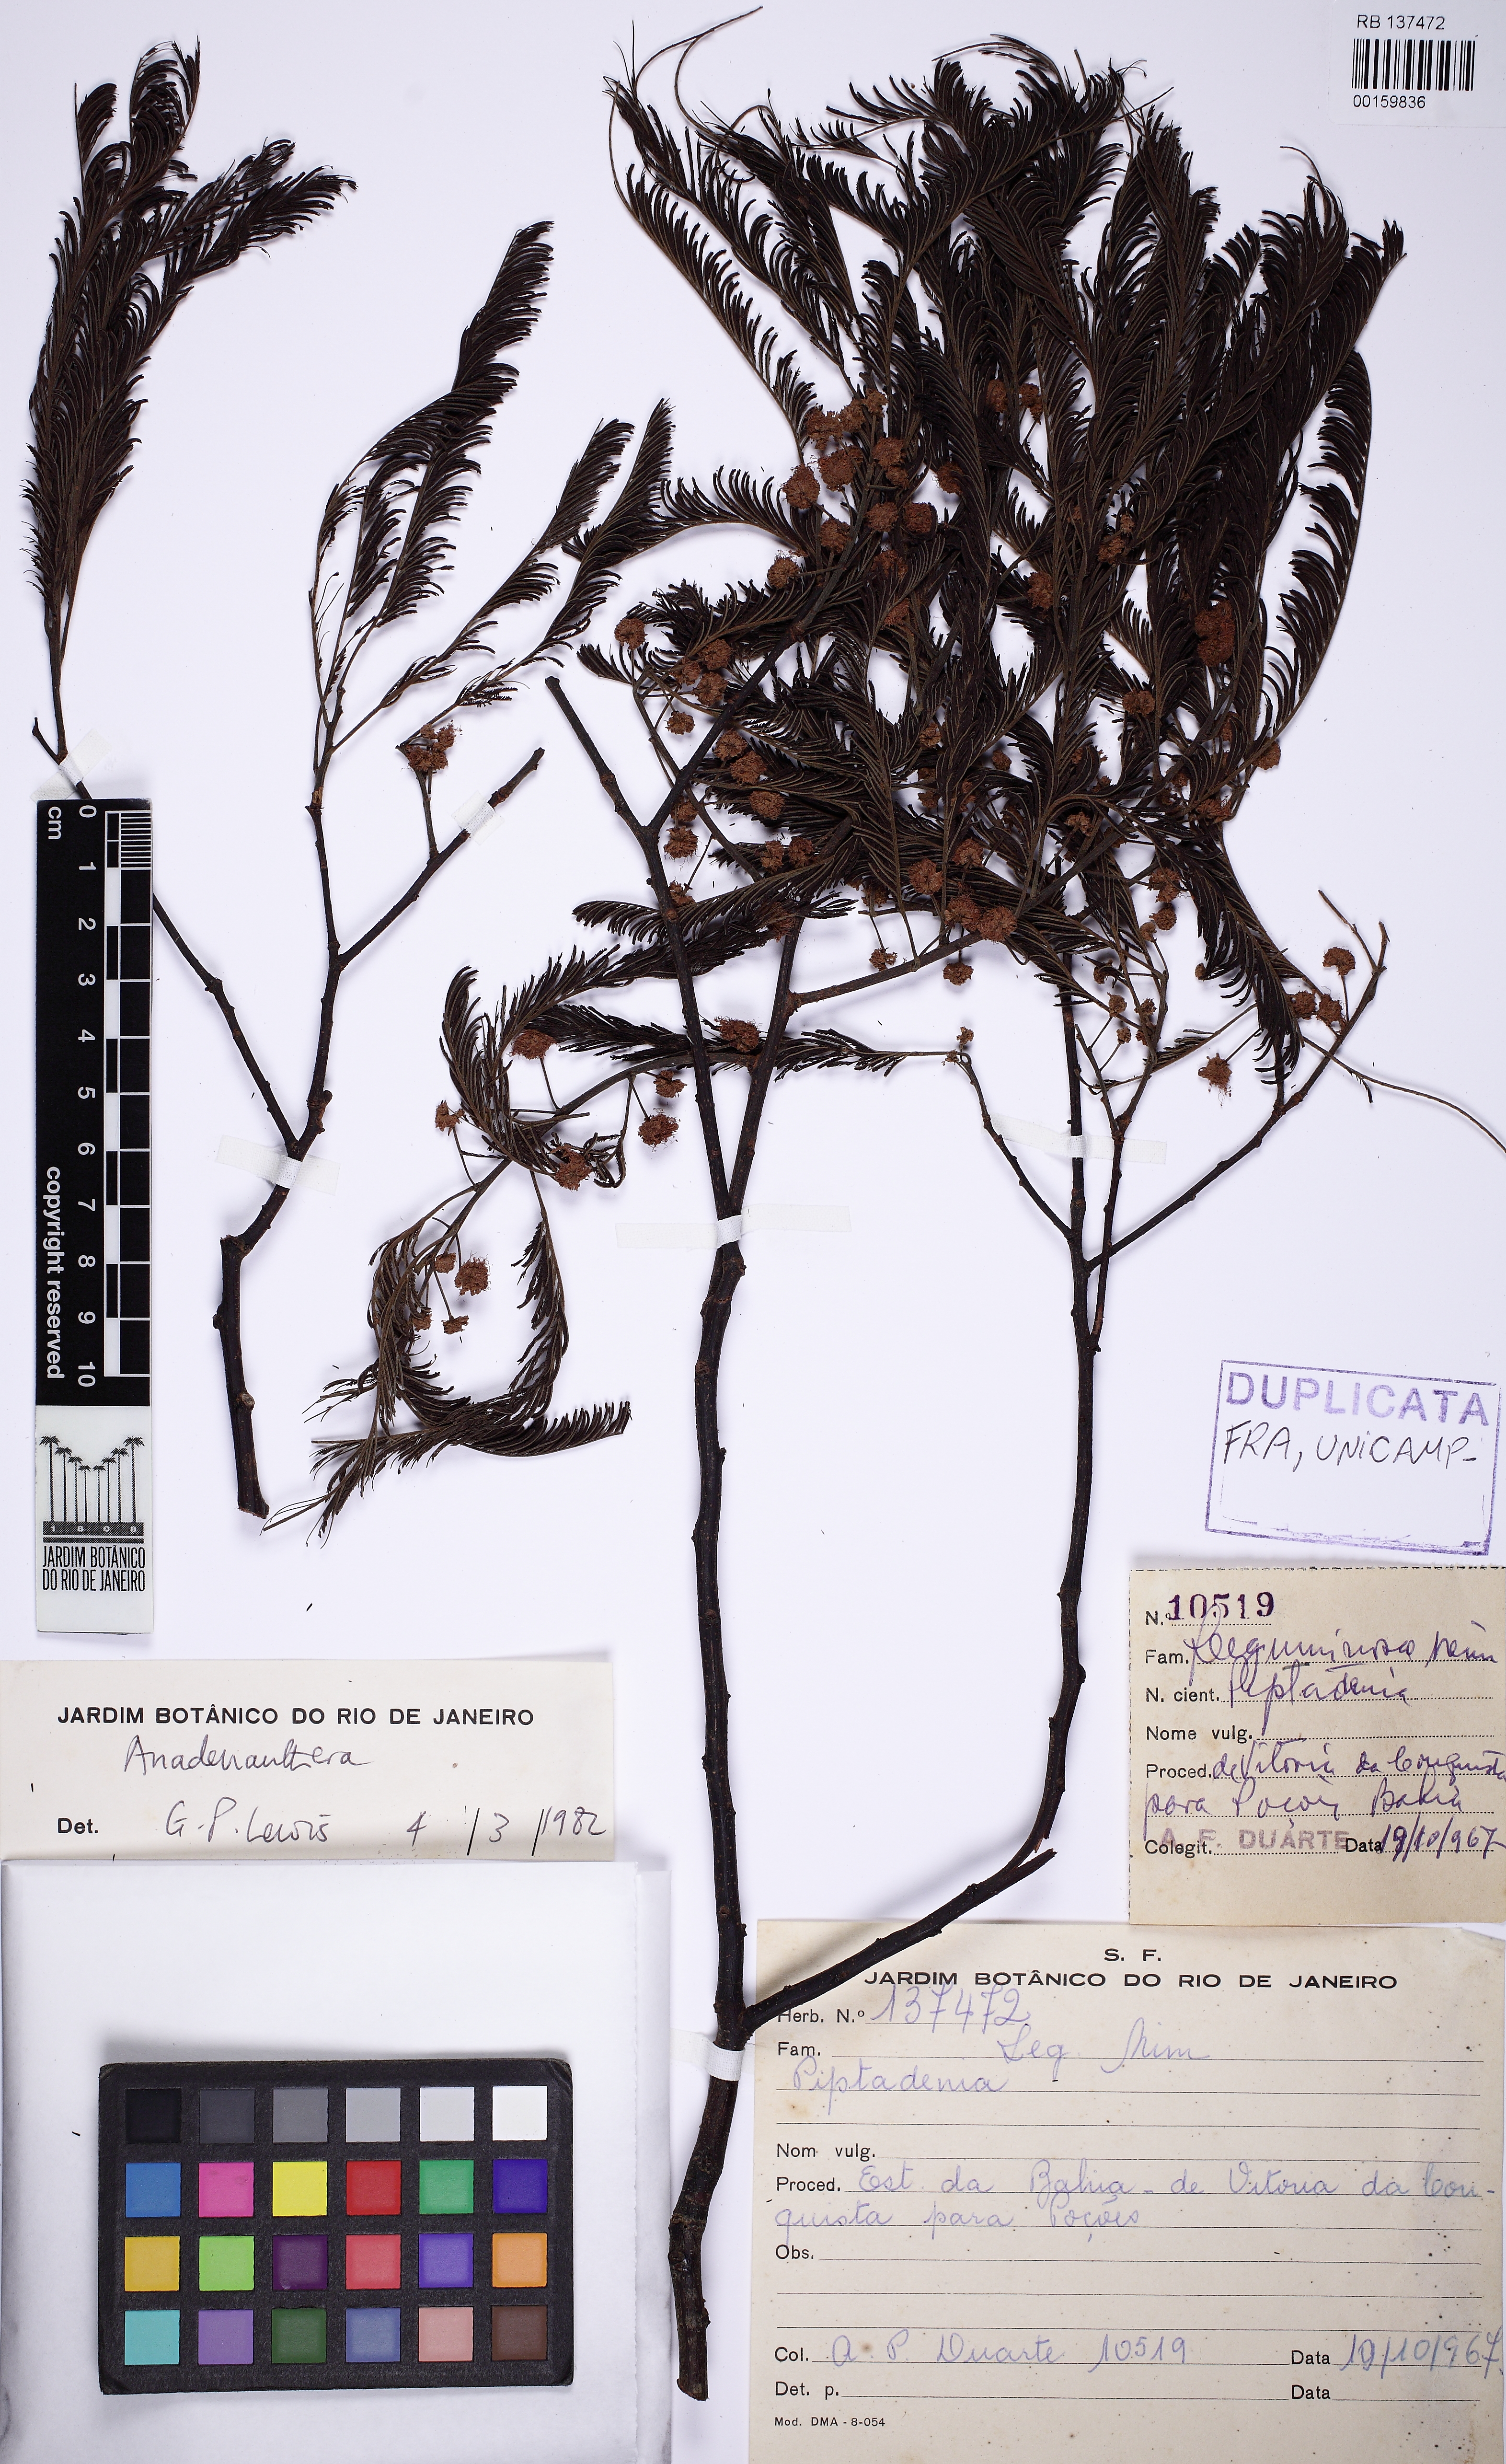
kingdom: Plantae
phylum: Tracheophyta
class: Magnoliopsida
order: Fabales
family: Fabaceae
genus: Anadenanthera
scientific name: Anadenanthera colubrina
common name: Curupay
